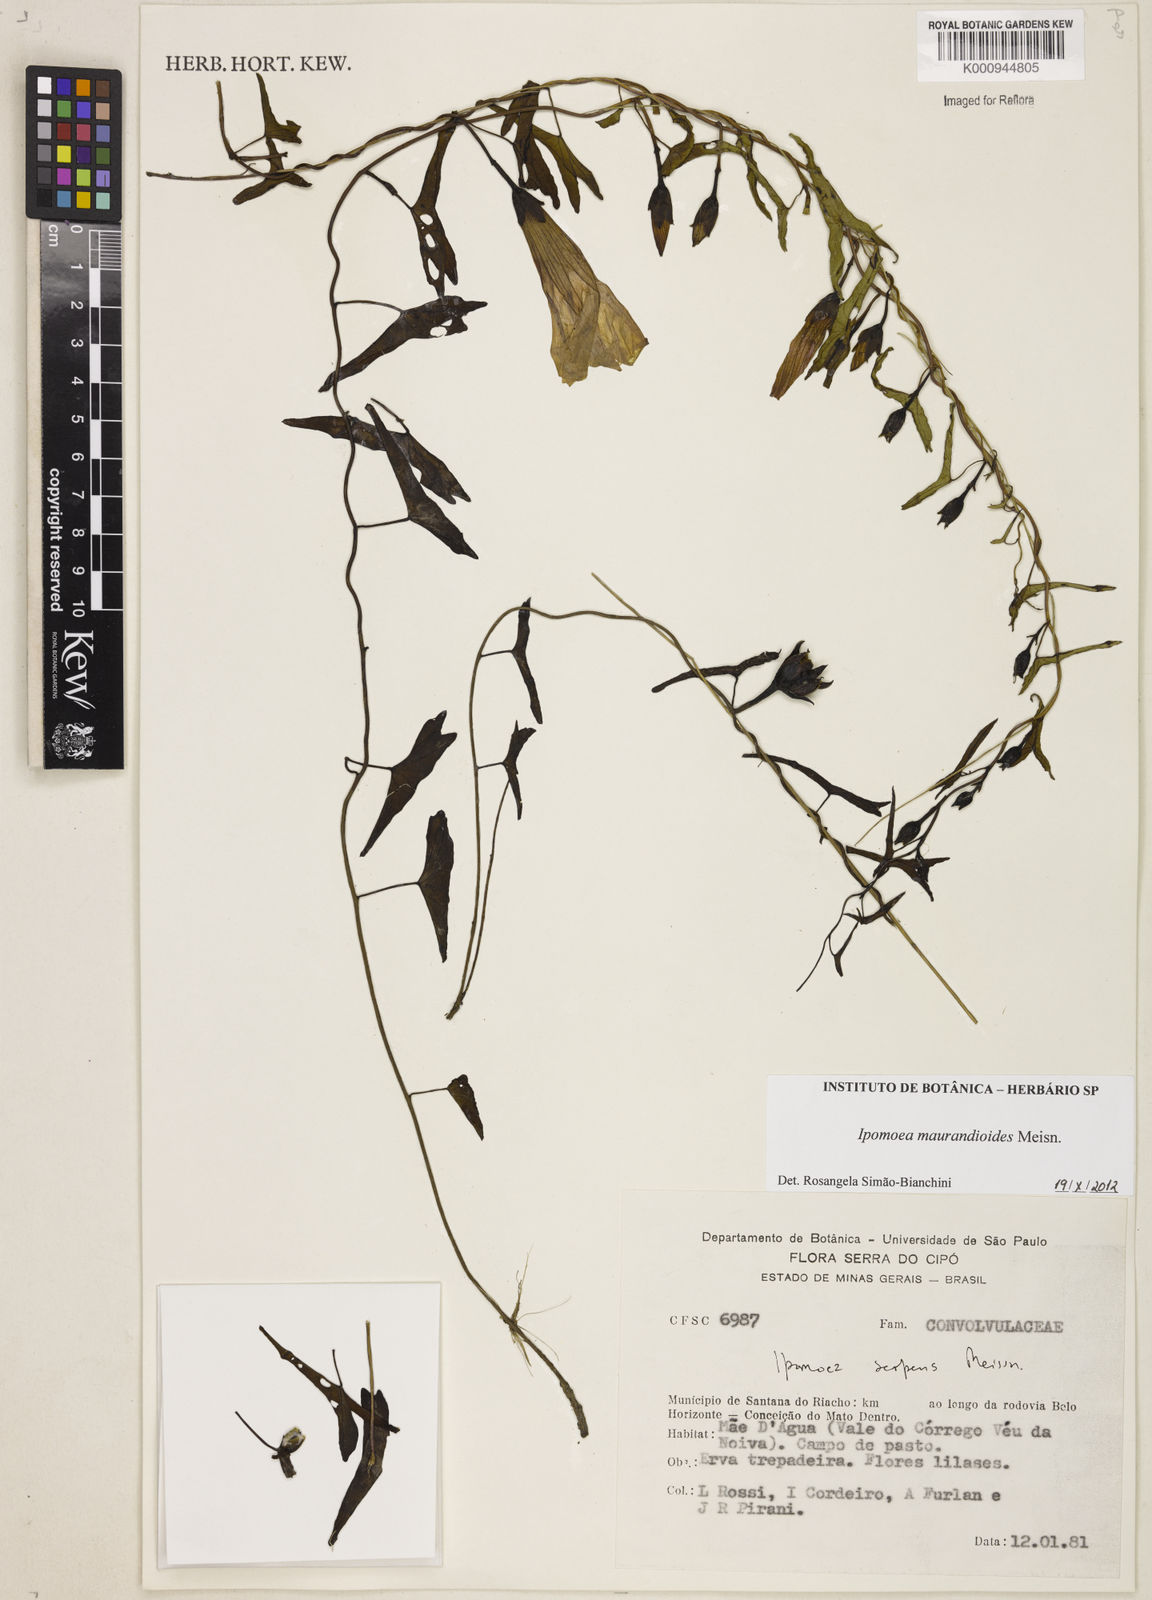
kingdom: Plantae
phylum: Tracheophyta
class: Magnoliopsida
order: Solanales
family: Convolvulaceae
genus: Ipomoea
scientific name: Ipomoea maurandioides
